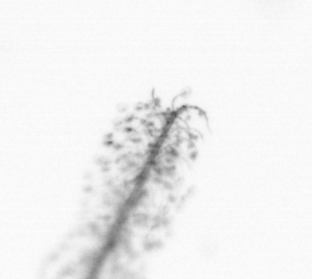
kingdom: Chromista
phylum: Ochrophyta
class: Bacillariophyceae
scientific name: Bacillariophyceae
